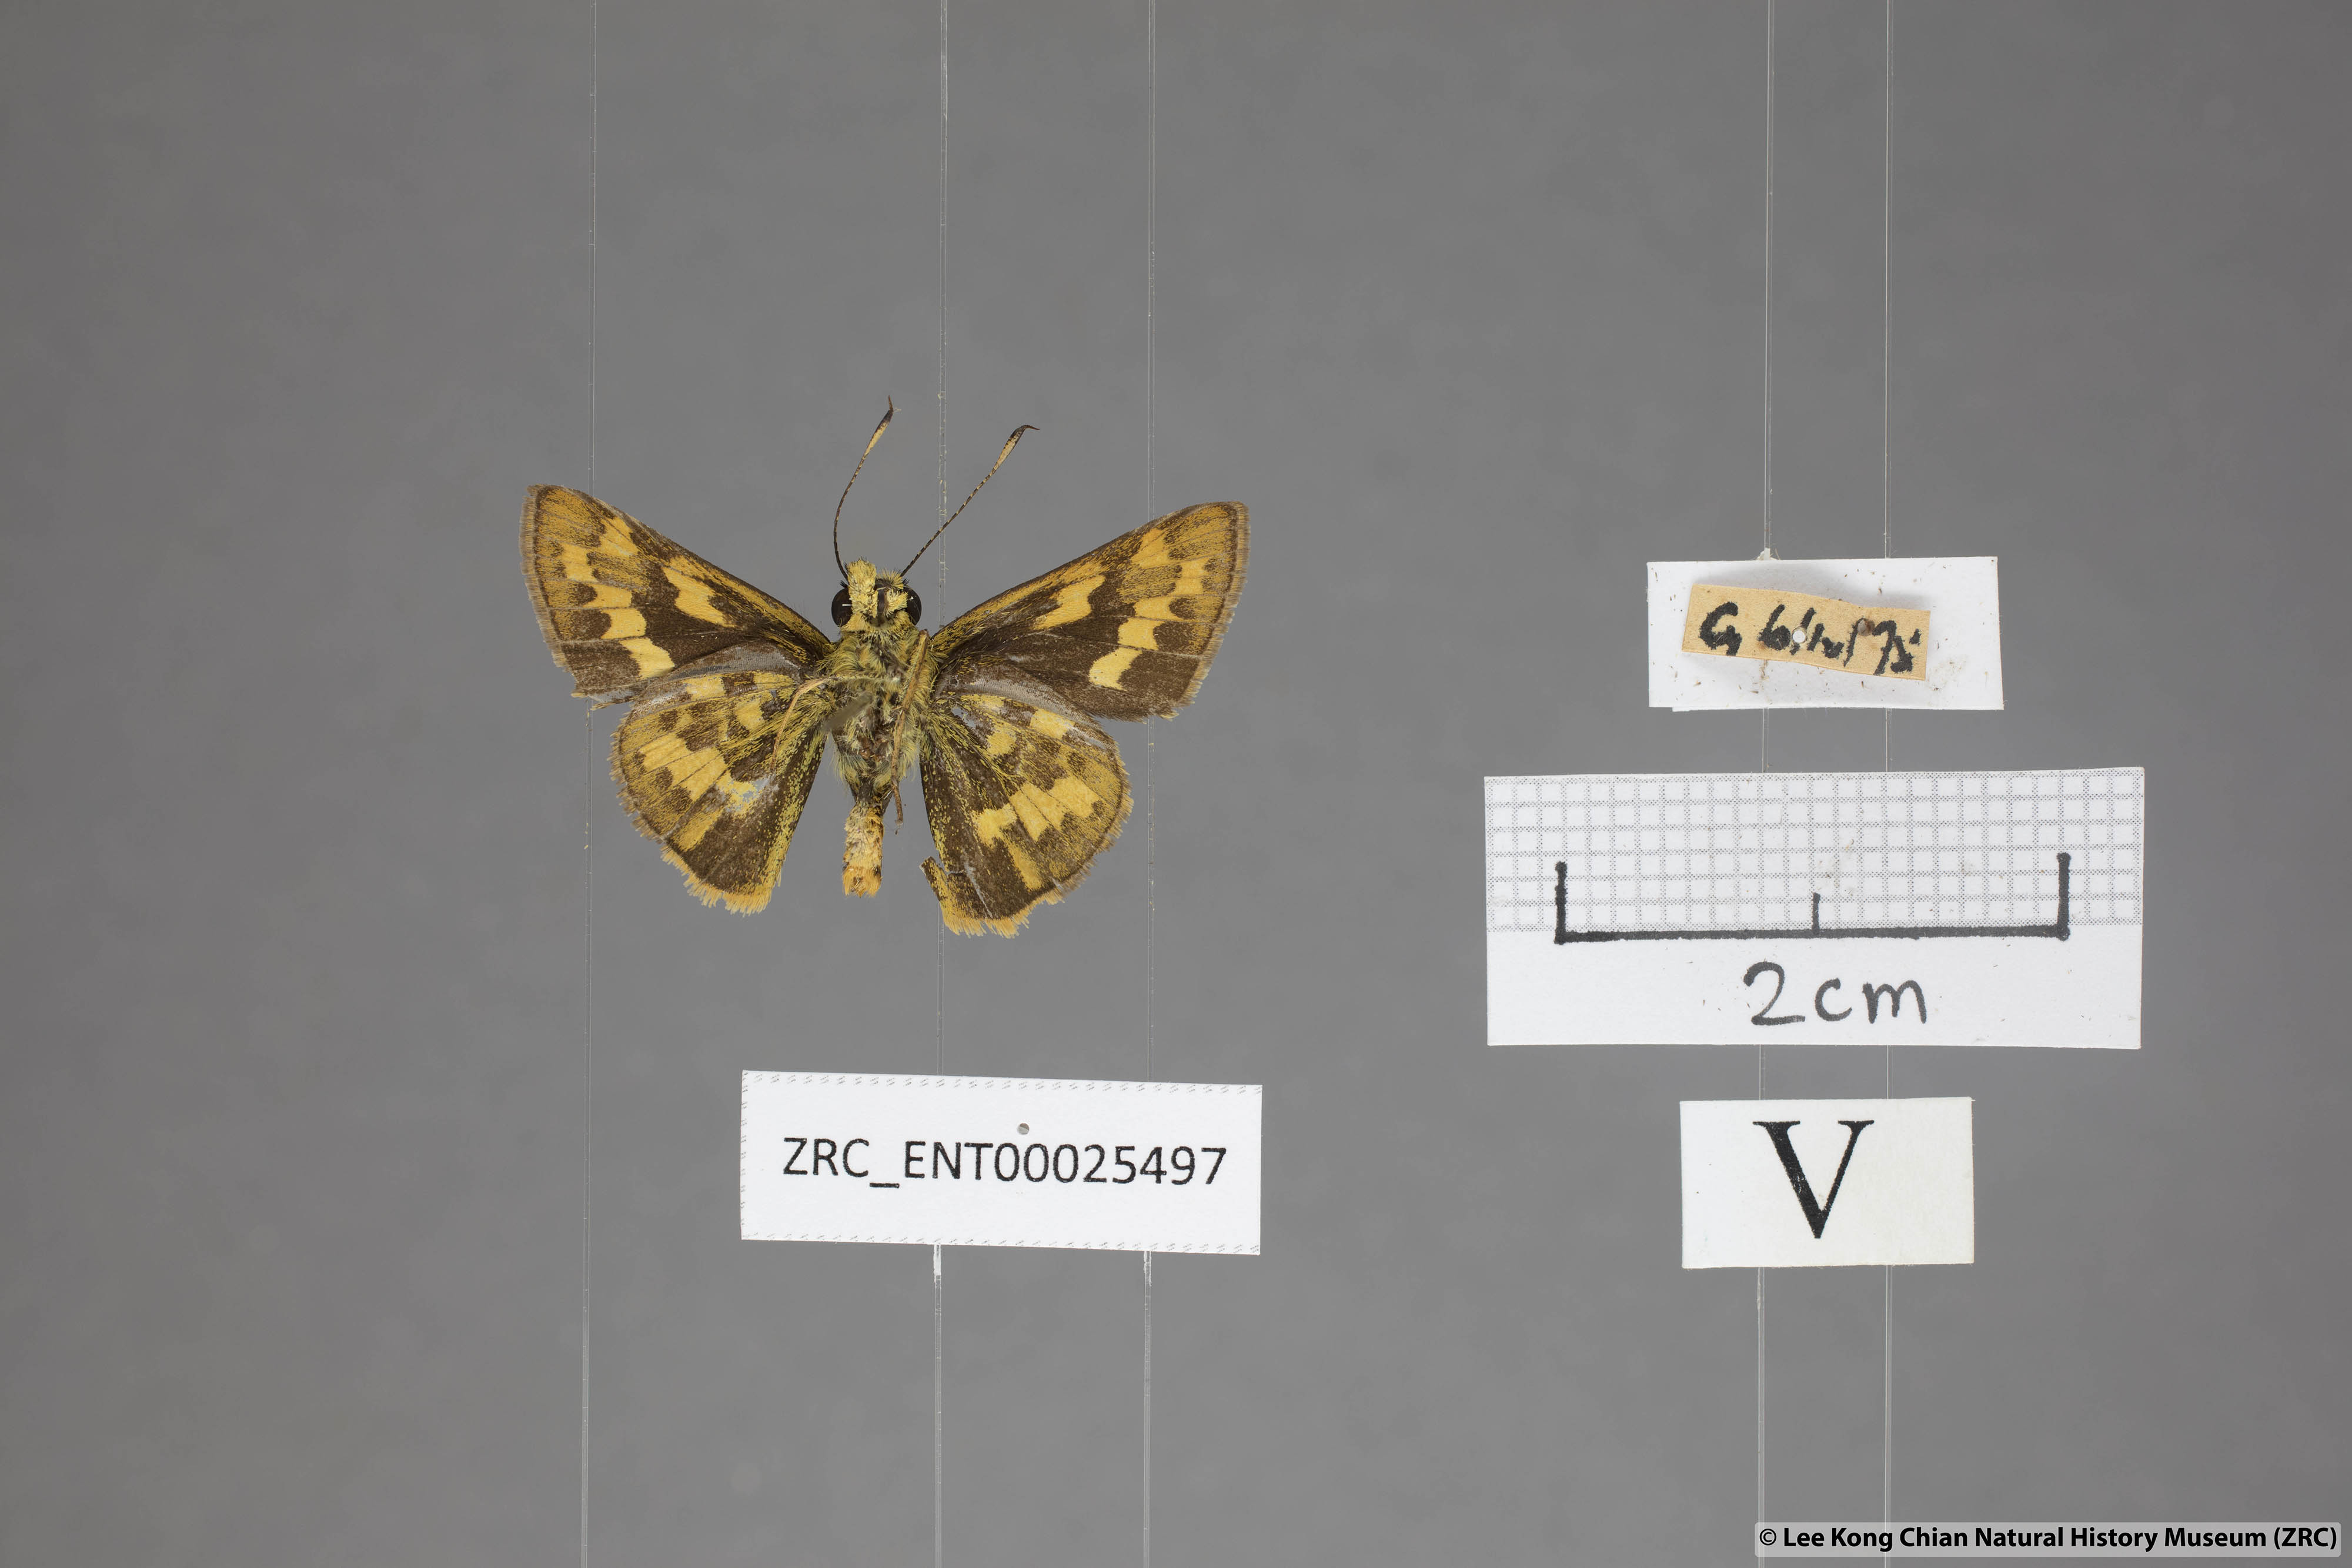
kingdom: Animalia
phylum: Arthropoda
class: Insecta
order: Lepidoptera
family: Hesperiidae
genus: Potanthus
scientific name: Potanthus trachala
